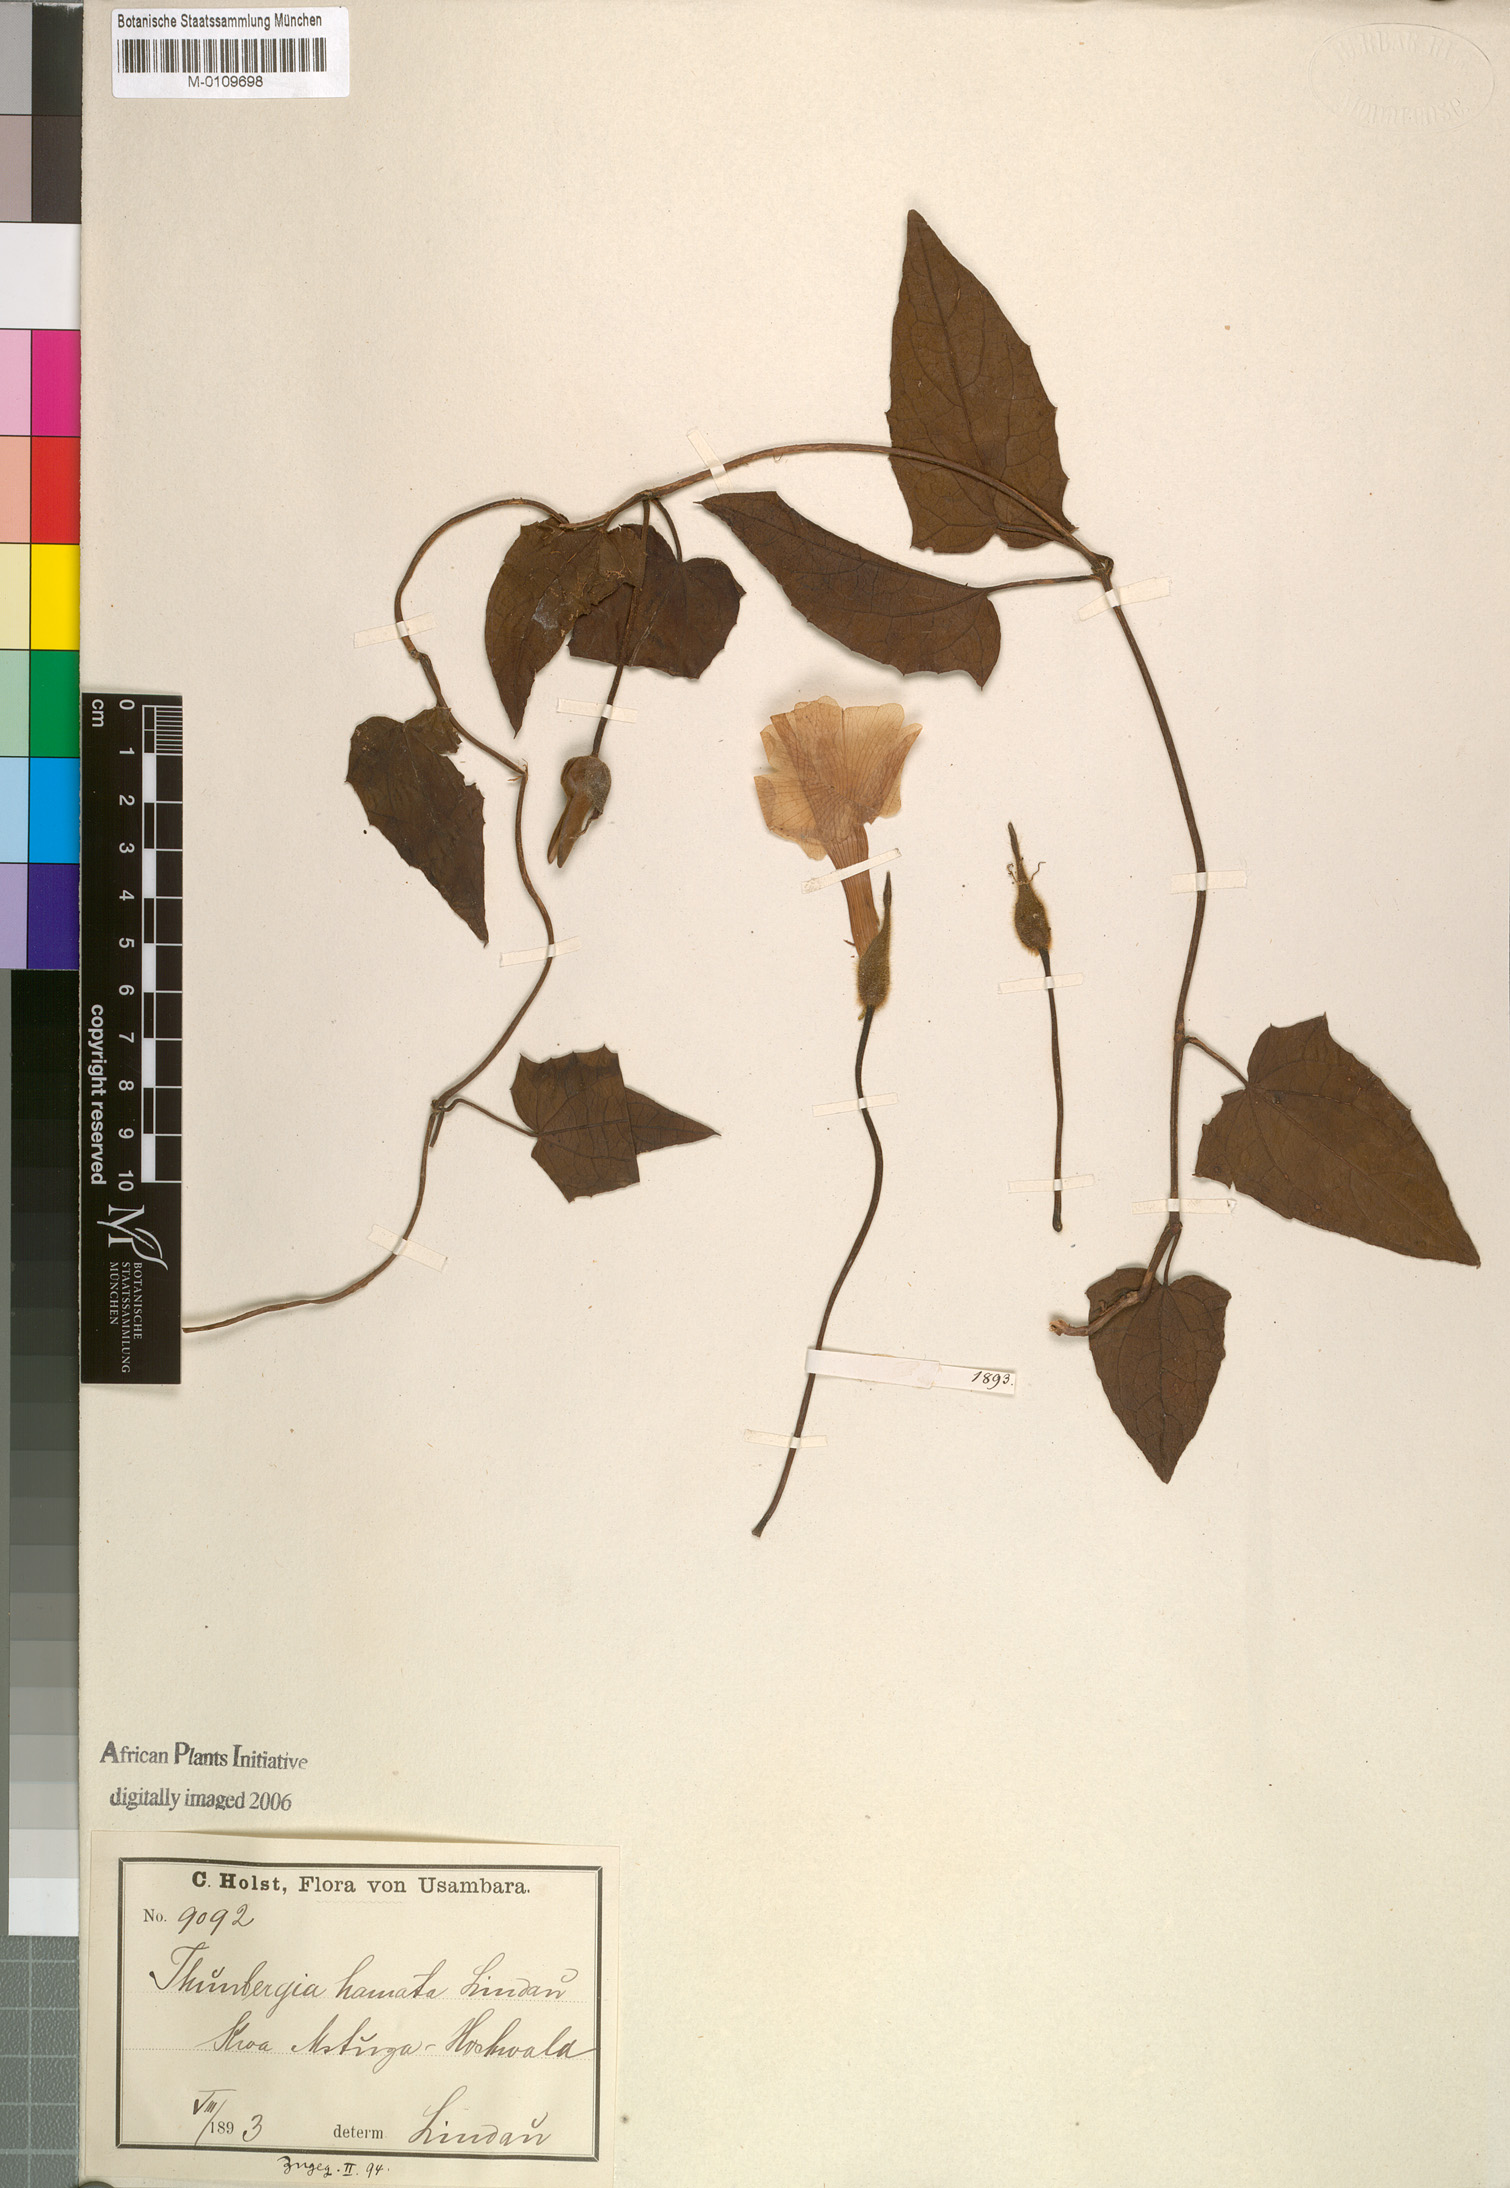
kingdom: Plantae
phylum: Tracheophyta
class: Magnoliopsida
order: Lamiales
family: Acanthaceae
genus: Thunbergia
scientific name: Thunbergia hamata
